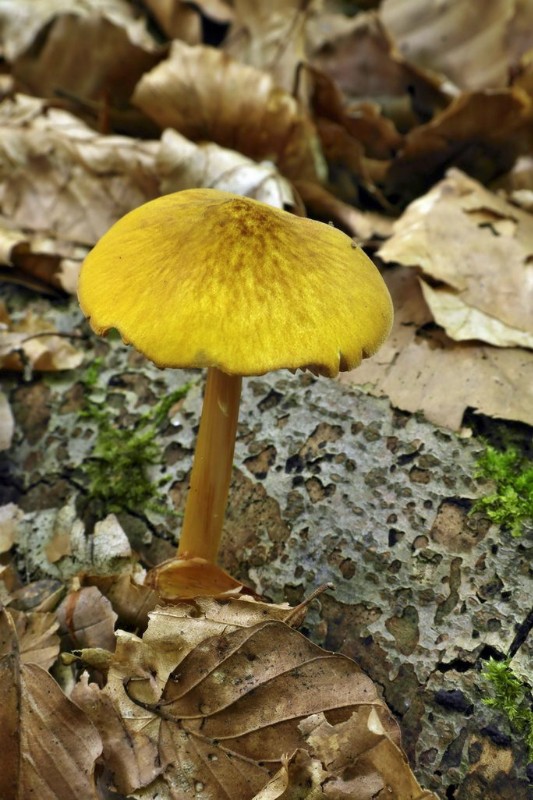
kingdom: Fungi
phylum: Basidiomycota
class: Agaricomycetes
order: Agaricales
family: Pluteaceae
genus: Pluteus
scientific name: Pluteus leoninus
